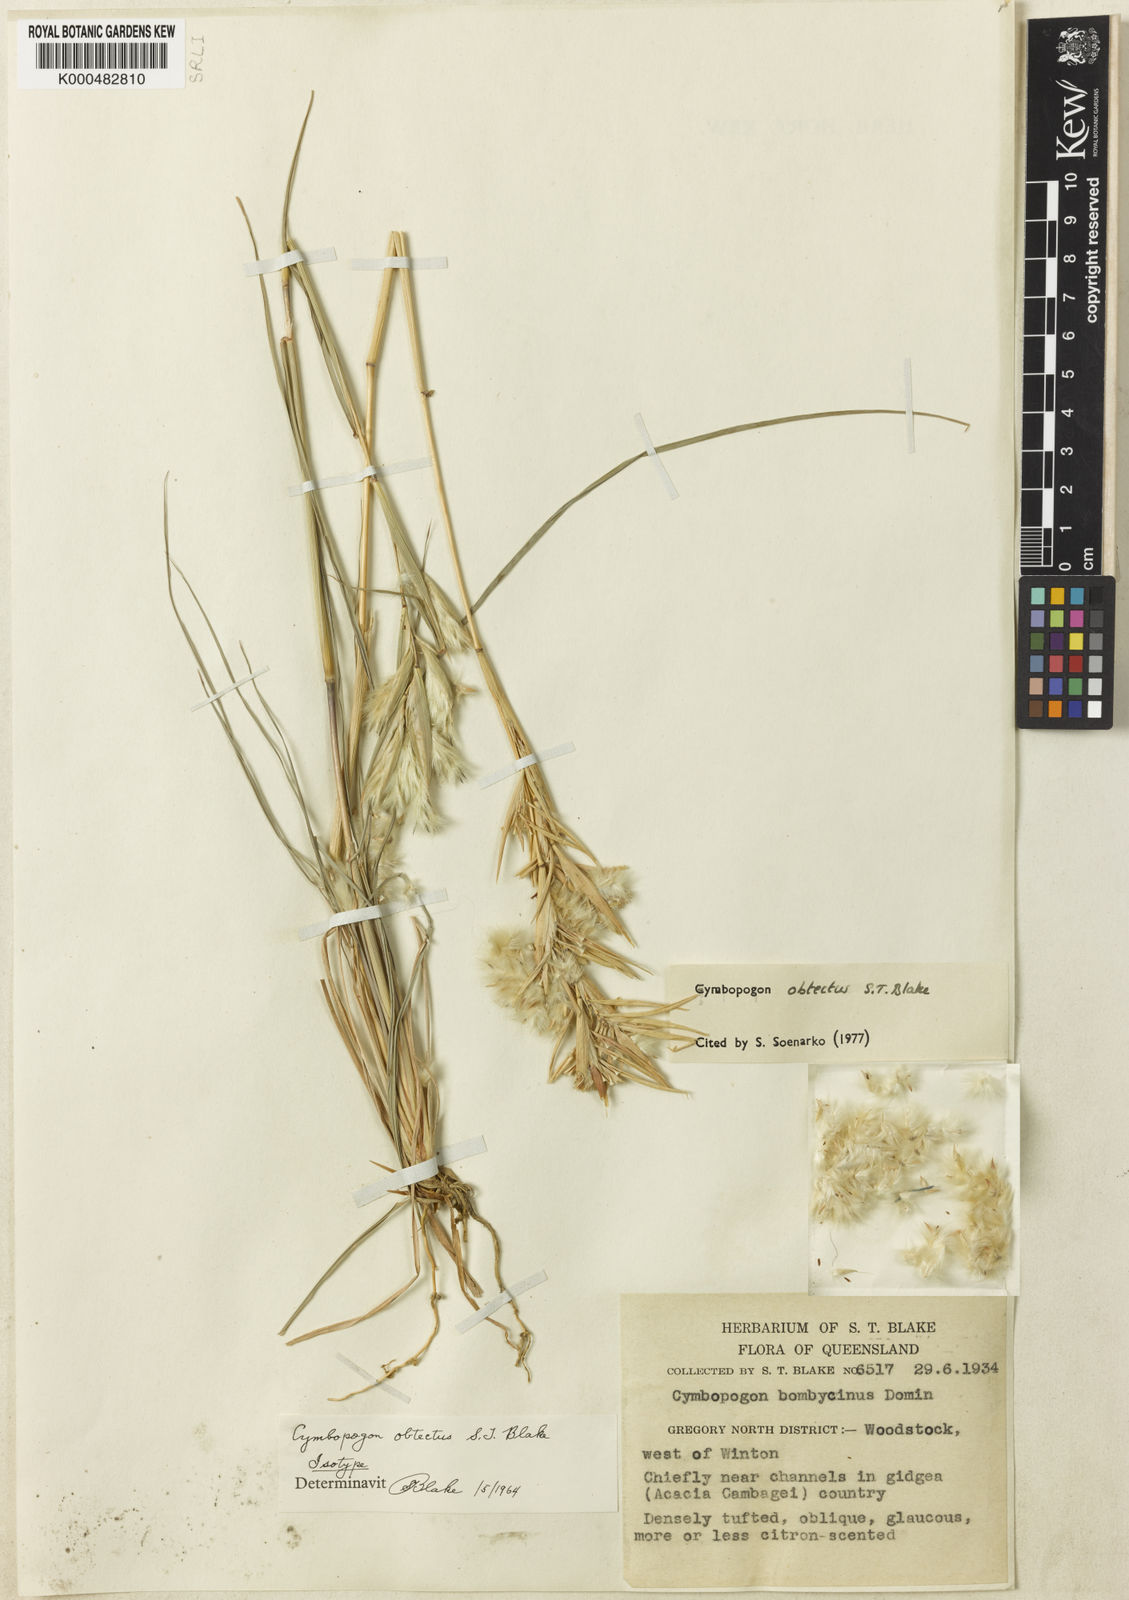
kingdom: Plantae
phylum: Tracheophyta
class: Liliopsida
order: Poales
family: Poaceae
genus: Cymbopogon
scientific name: Cymbopogon obtectus
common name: Silky heads
